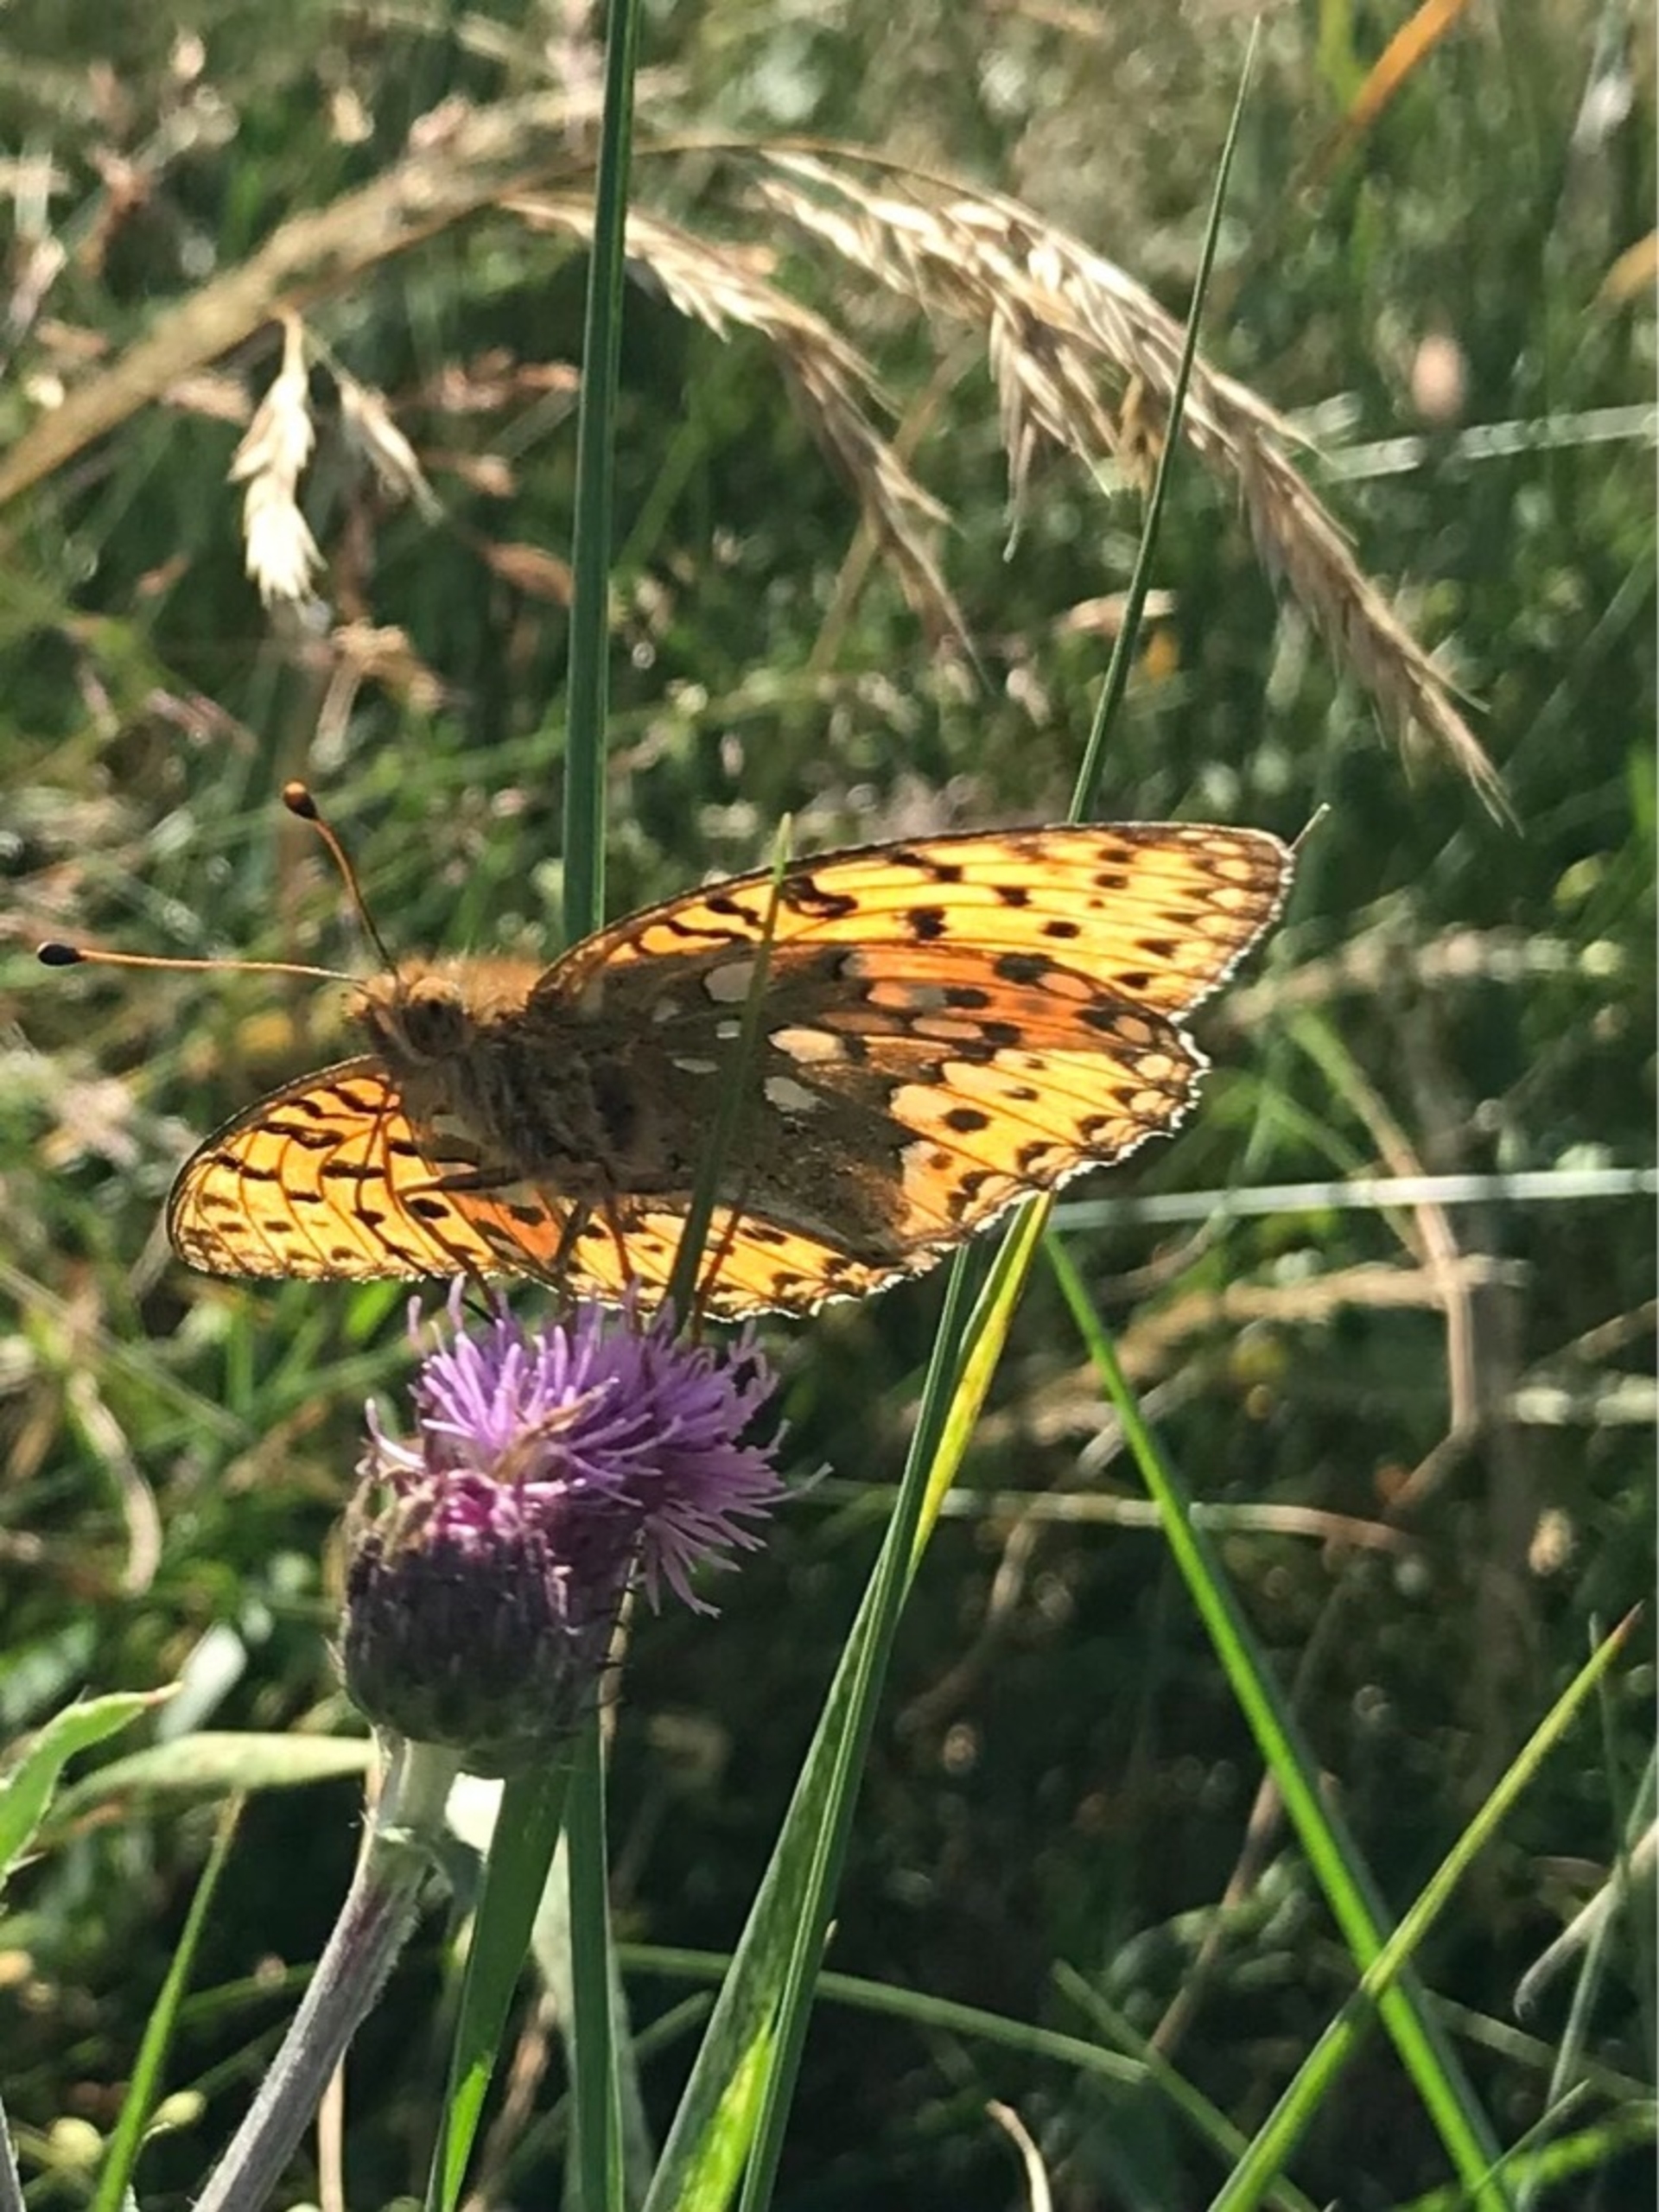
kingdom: Animalia
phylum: Arthropoda
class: Insecta
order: Lepidoptera
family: Nymphalidae
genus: Speyeria
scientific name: Speyeria aglaja
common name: Markperlemorsommerfugl
